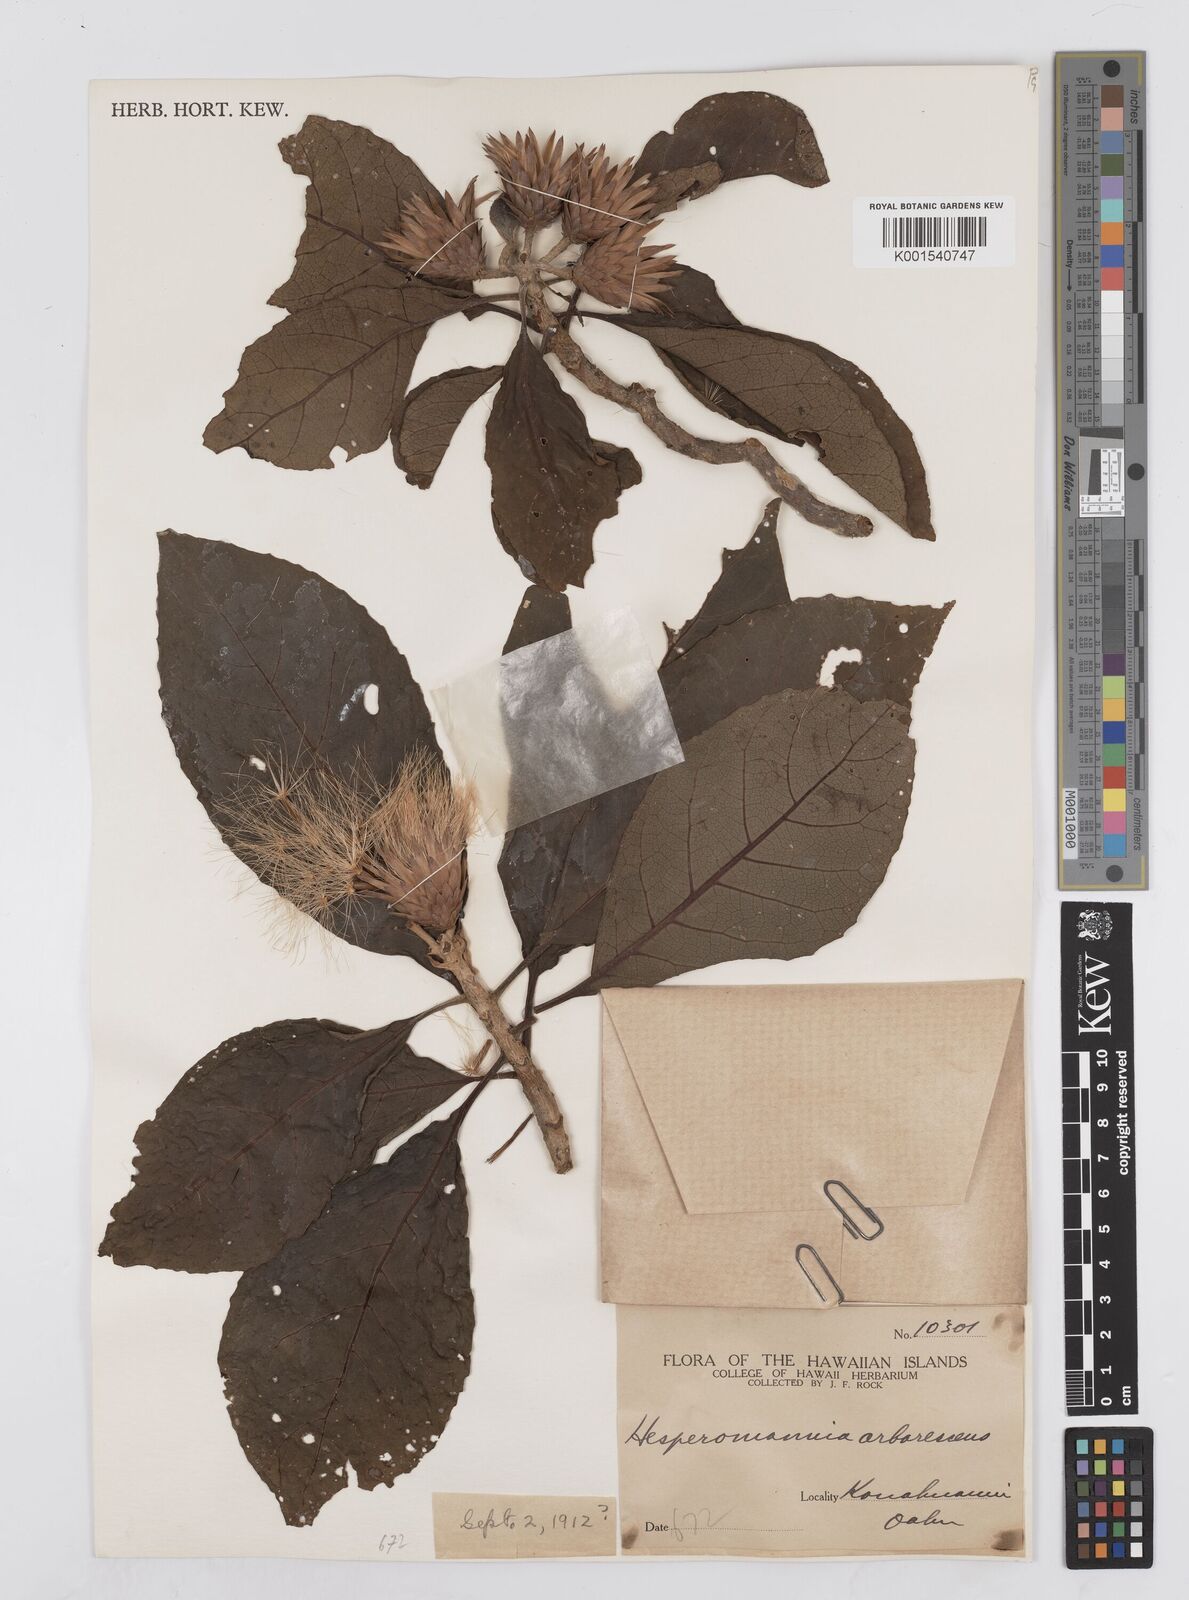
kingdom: Plantae
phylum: Tracheophyta
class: Magnoliopsida
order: Asterales
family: Asteraceae
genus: Hesperomannia
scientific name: Hesperomannia
